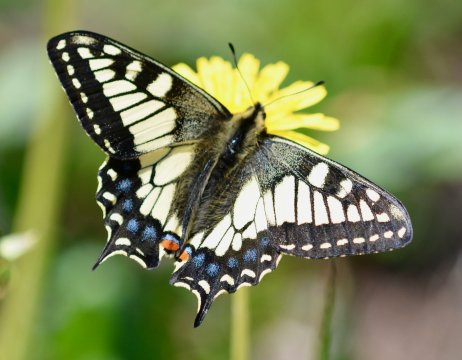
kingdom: Animalia
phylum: Arthropoda
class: Insecta
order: Lepidoptera
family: Papilionidae
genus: Papilio
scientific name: Papilio machaon
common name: Old World Swallowtail
